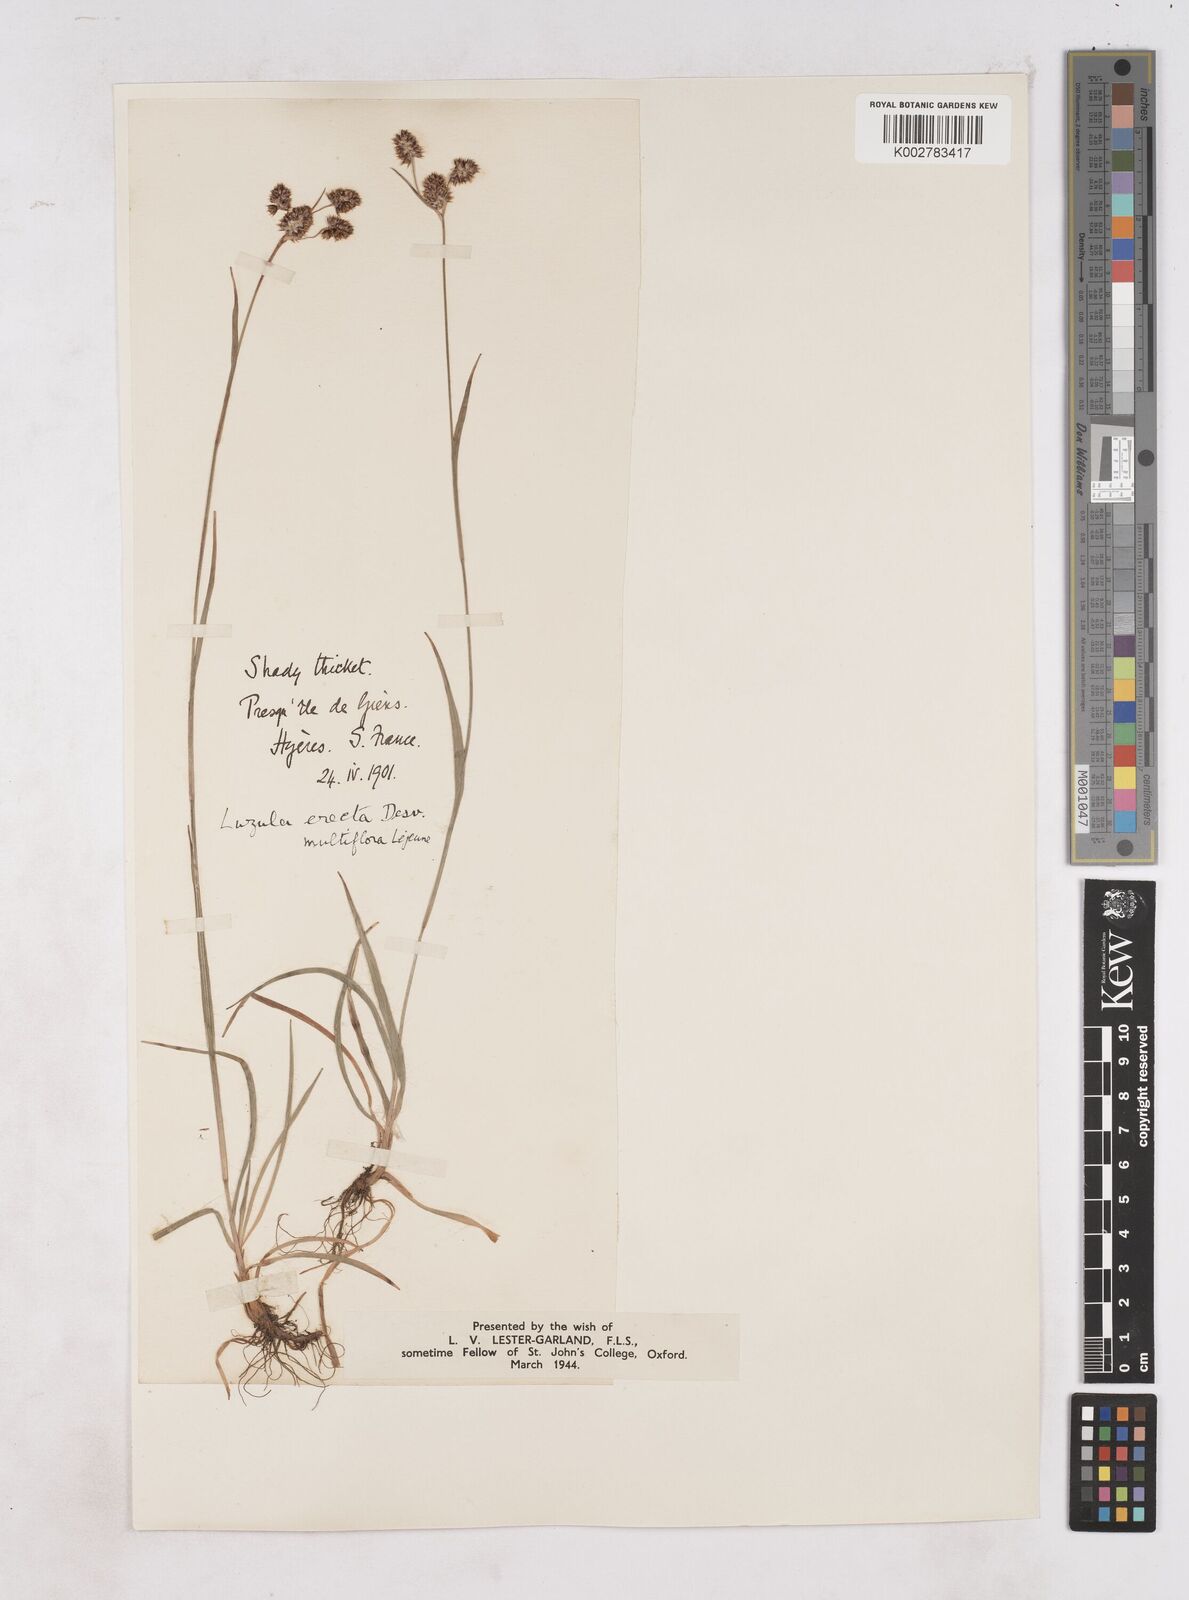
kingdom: Plantae
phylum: Tracheophyta
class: Liliopsida
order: Poales
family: Juncaceae
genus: Luzula
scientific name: Luzula multiflora
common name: Heath wood-rush
